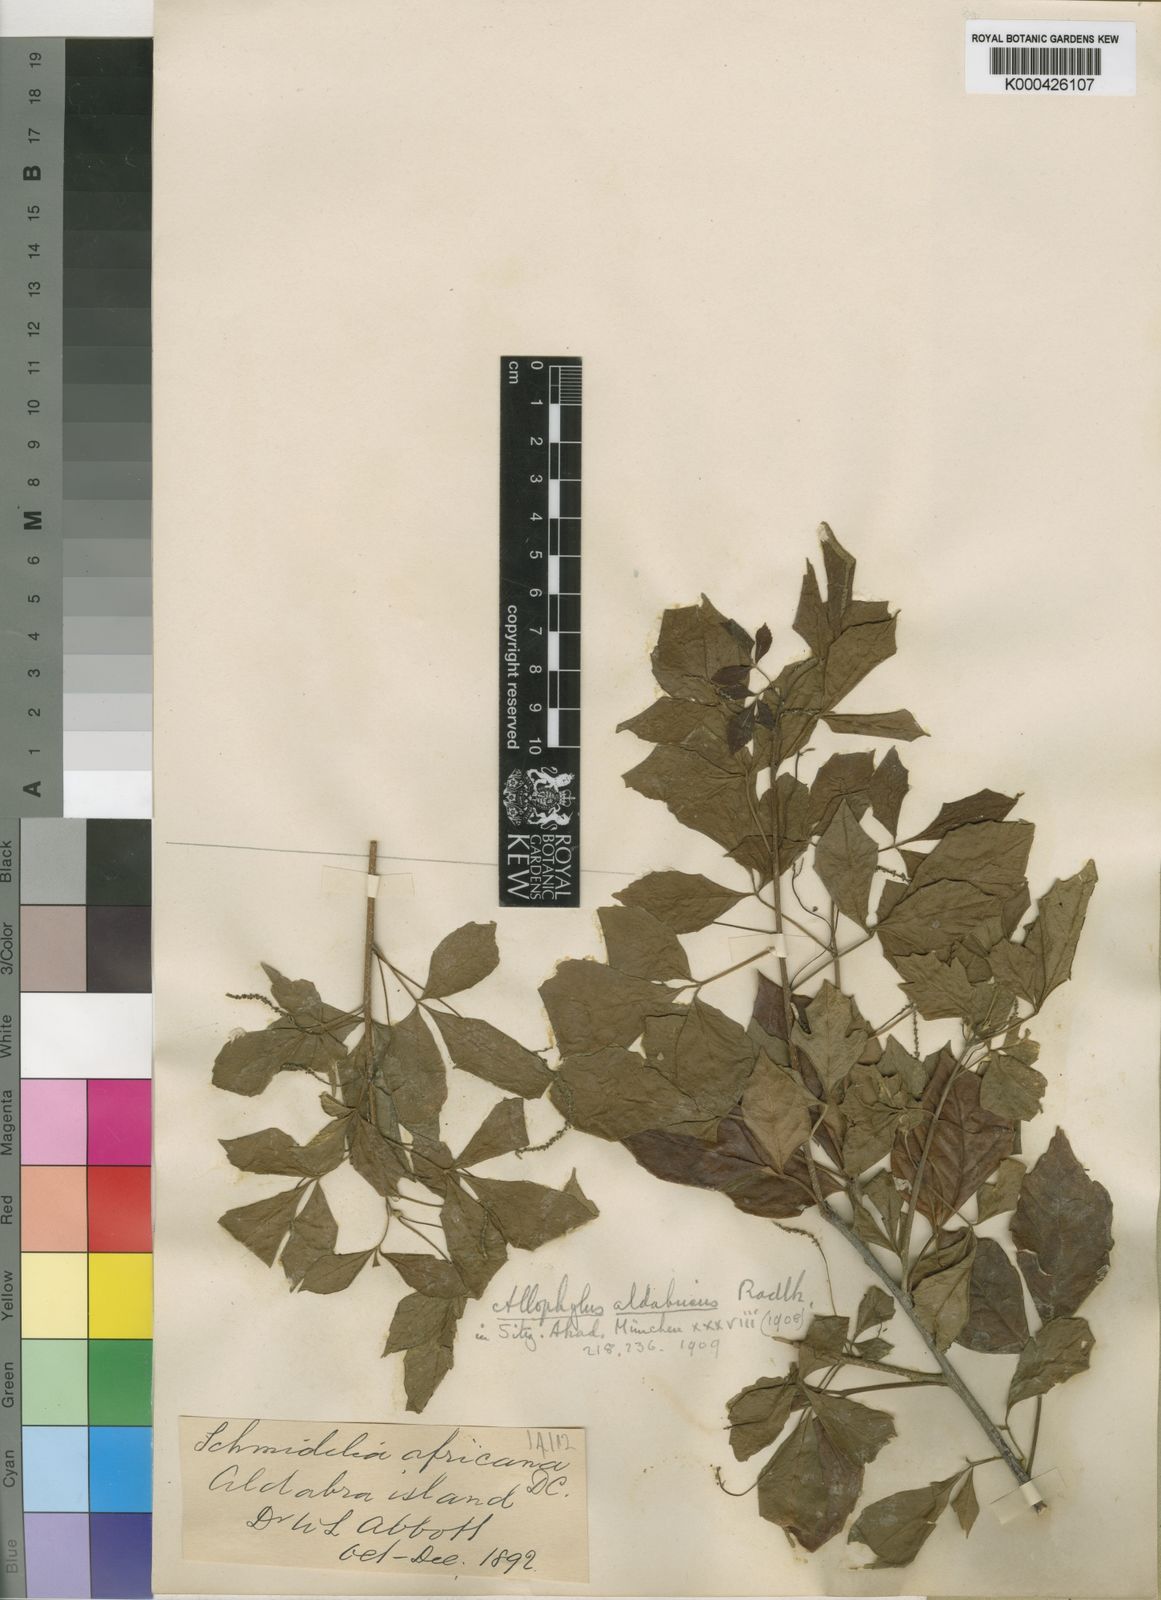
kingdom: Plantae
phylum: Tracheophyta
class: Magnoliopsida
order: Sapindales
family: Sapindaceae
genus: Allophylus
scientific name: Allophylus aldabricus
